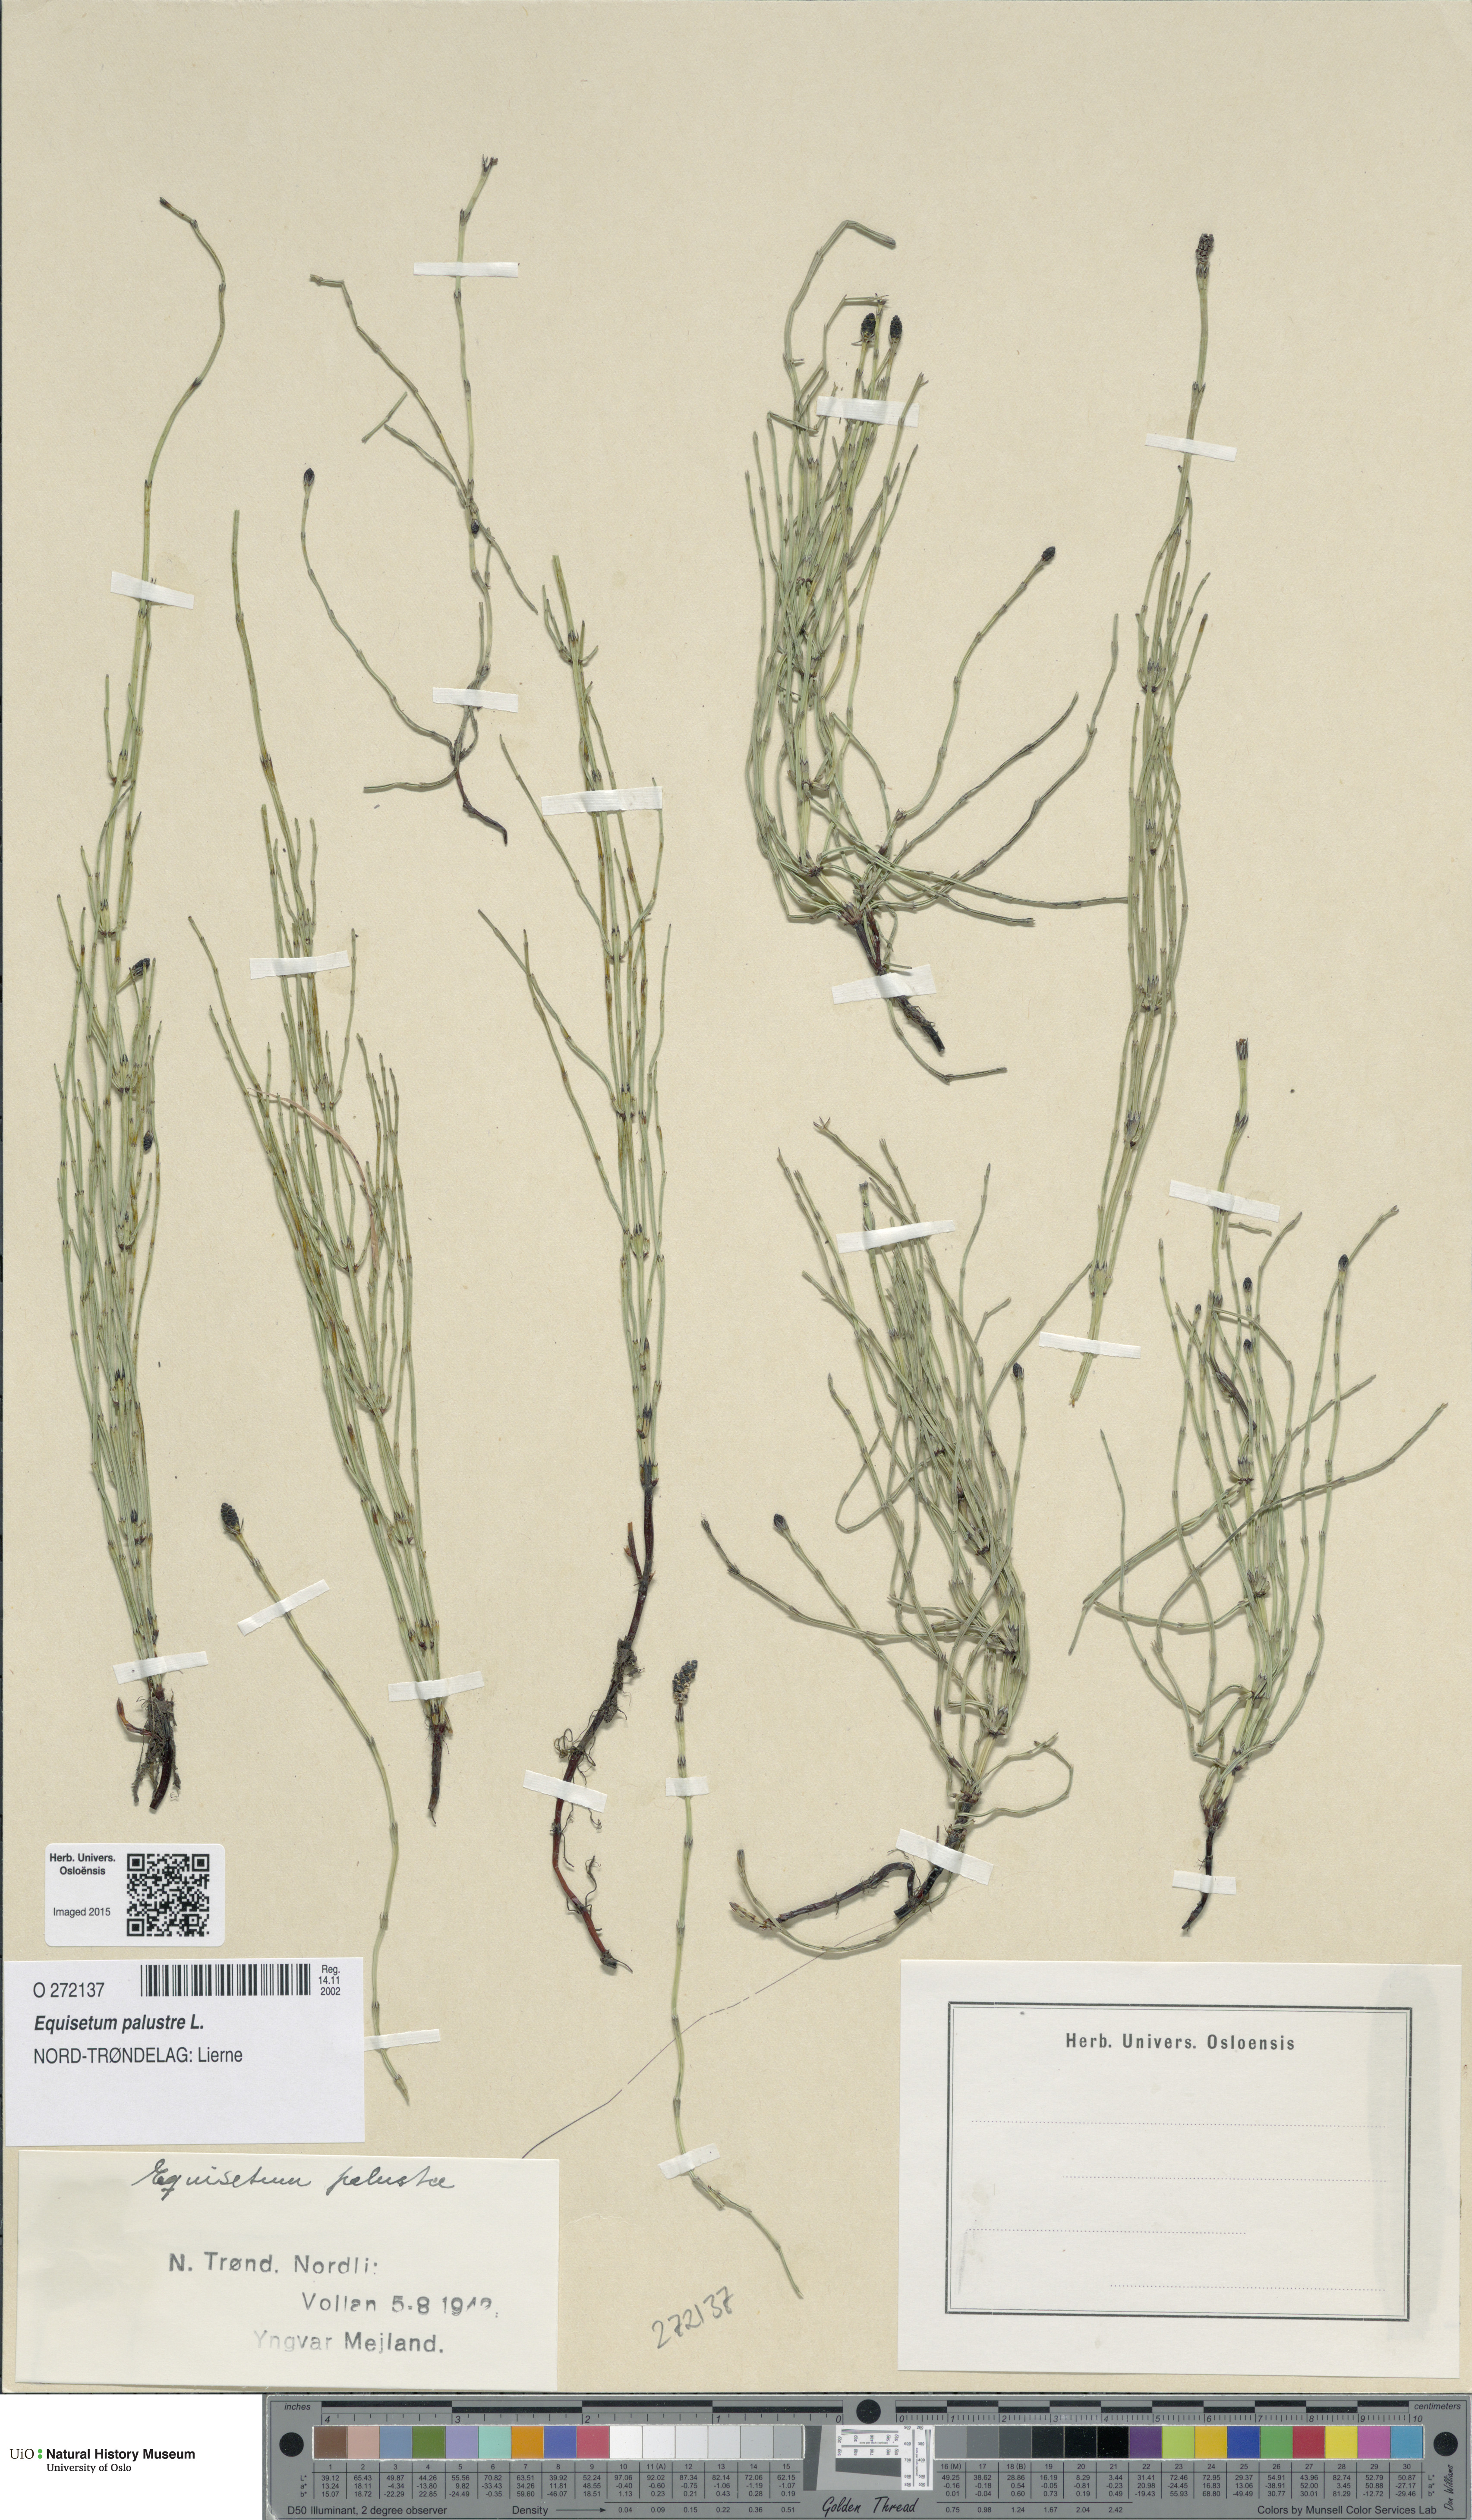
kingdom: Plantae
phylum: Tracheophyta
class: Polypodiopsida
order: Equisetales
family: Equisetaceae
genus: Equisetum
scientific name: Equisetum palustre
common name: Marsh horsetail
